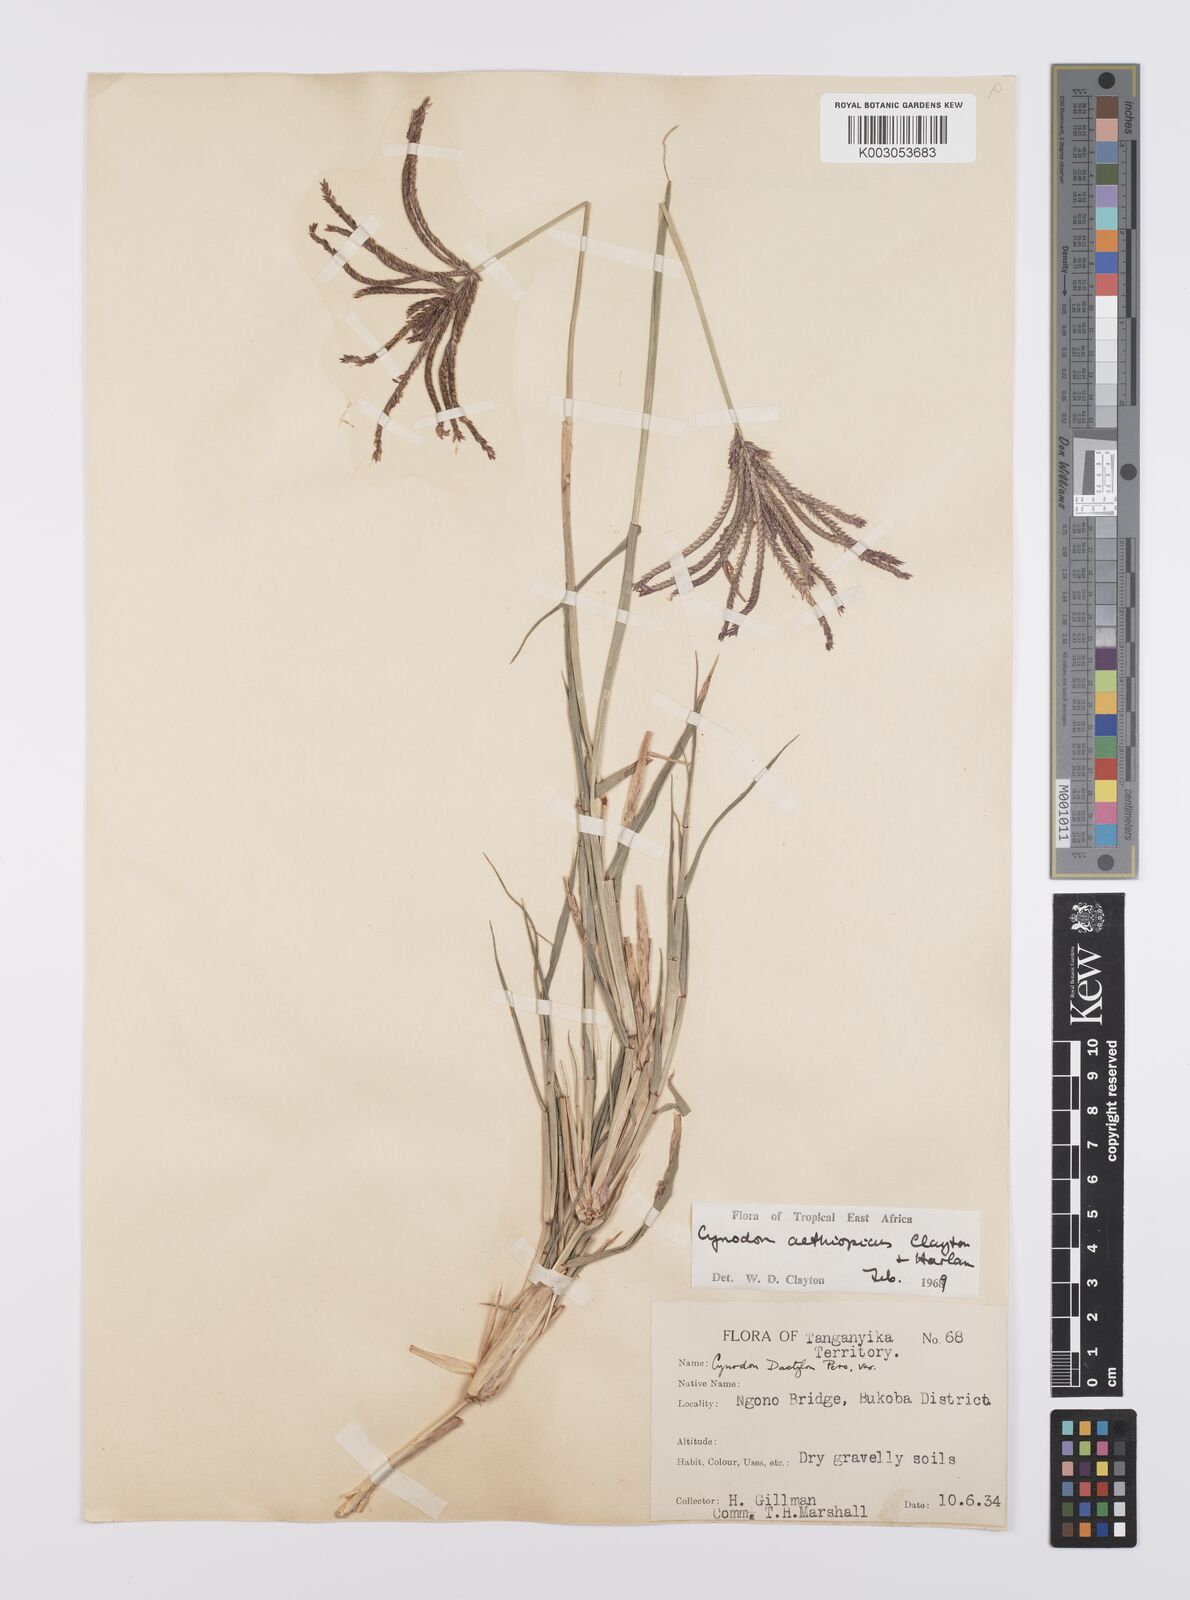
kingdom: Plantae
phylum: Tracheophyta
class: Liliopsida
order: Poales
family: Poaceae
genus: Cynodon
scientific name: Cynodon aethiopicus
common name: Ethiopian dogstooth grass
